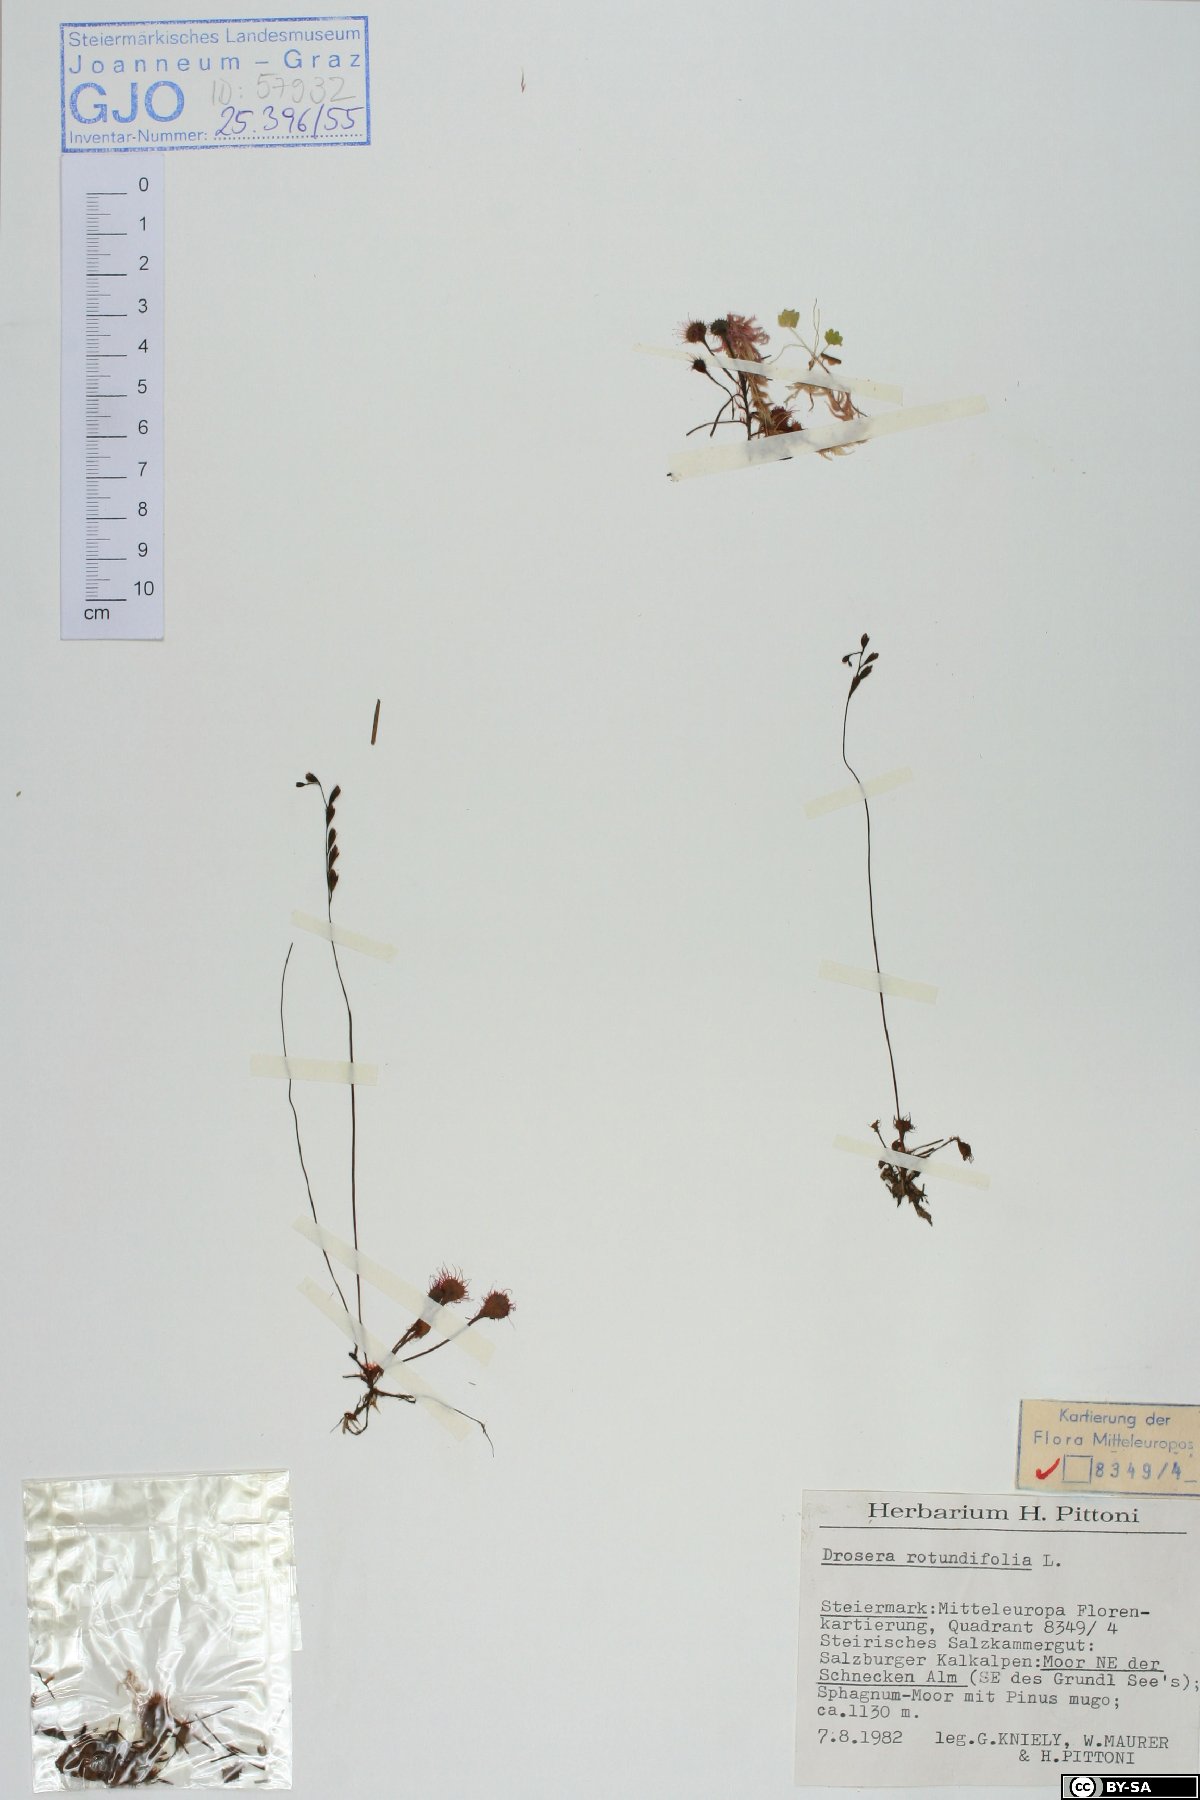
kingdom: Plantae
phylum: Tracheophyta
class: Magnoliopsida
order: Caryophyllales
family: Droseraceae
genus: Drosera
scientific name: Drosera rotundifolia
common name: Round-leaved sundew
